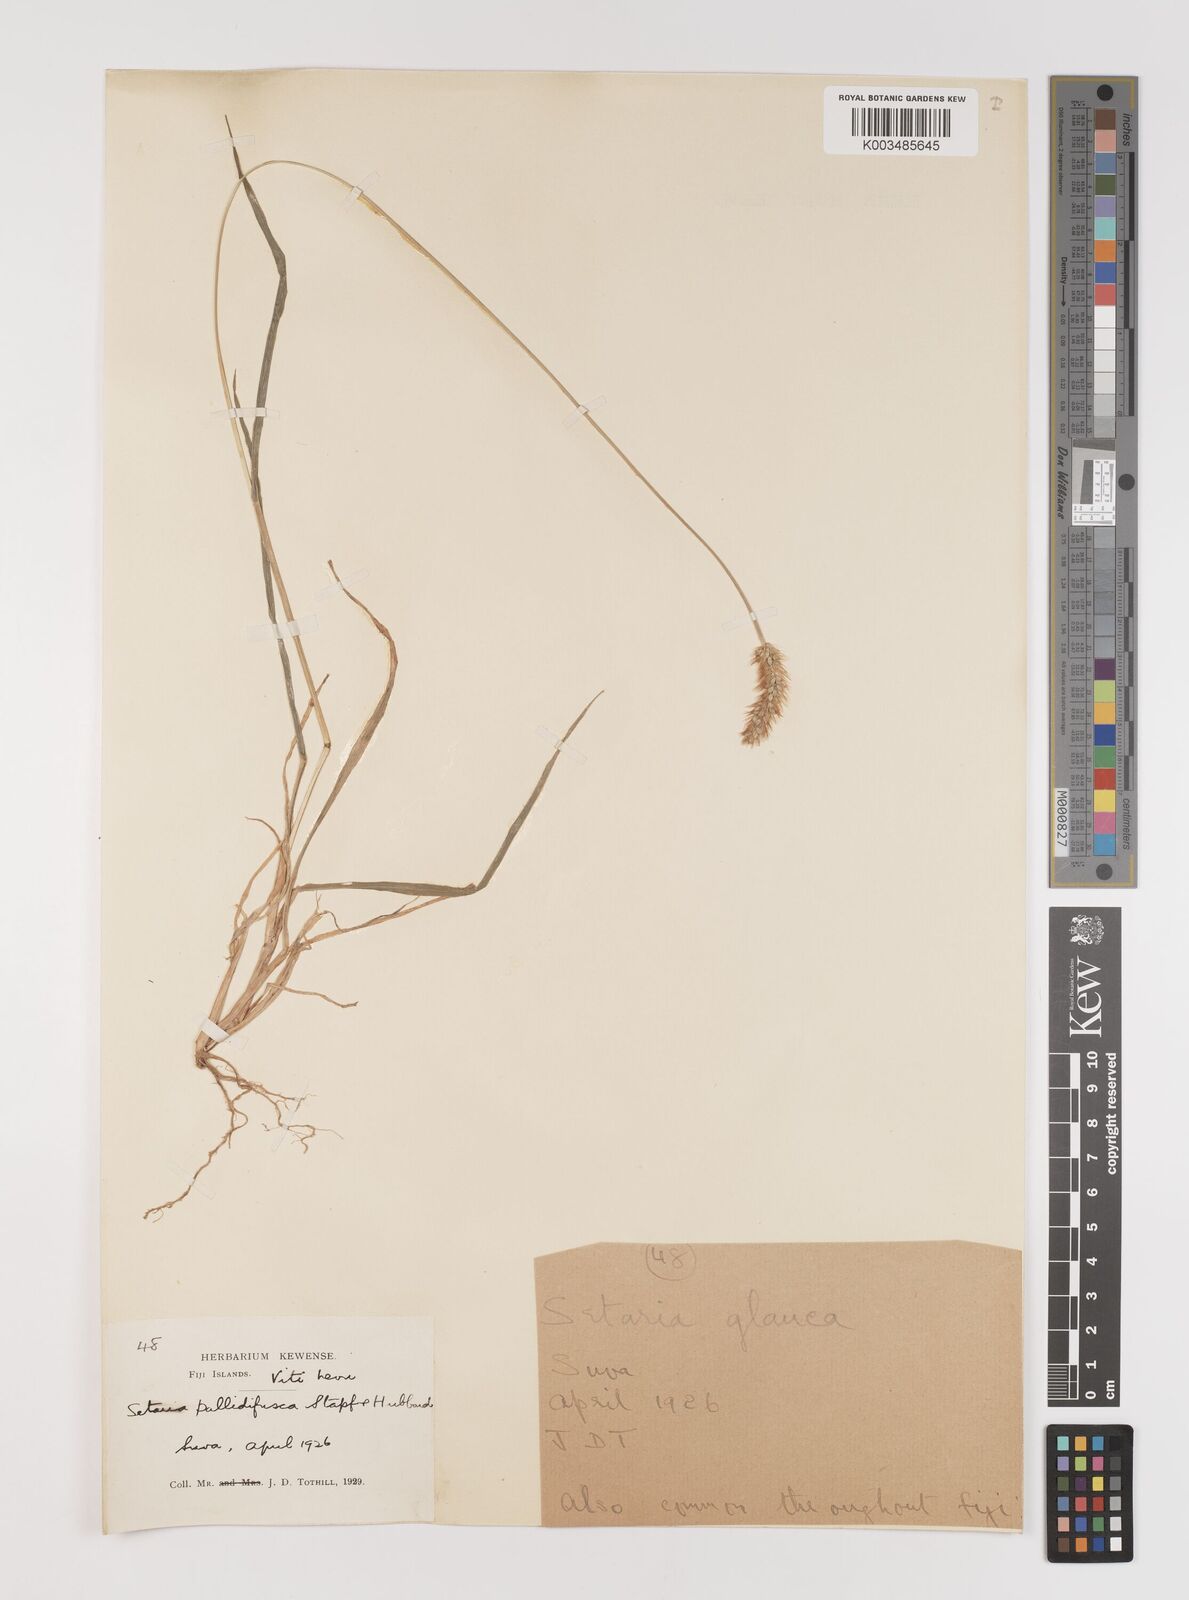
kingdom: Plantae
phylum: Tracheophyta
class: Liliopsida
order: Poales
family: Poaceae
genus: Setaria
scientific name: Setaria pumila
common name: Yellow bristle-grass
